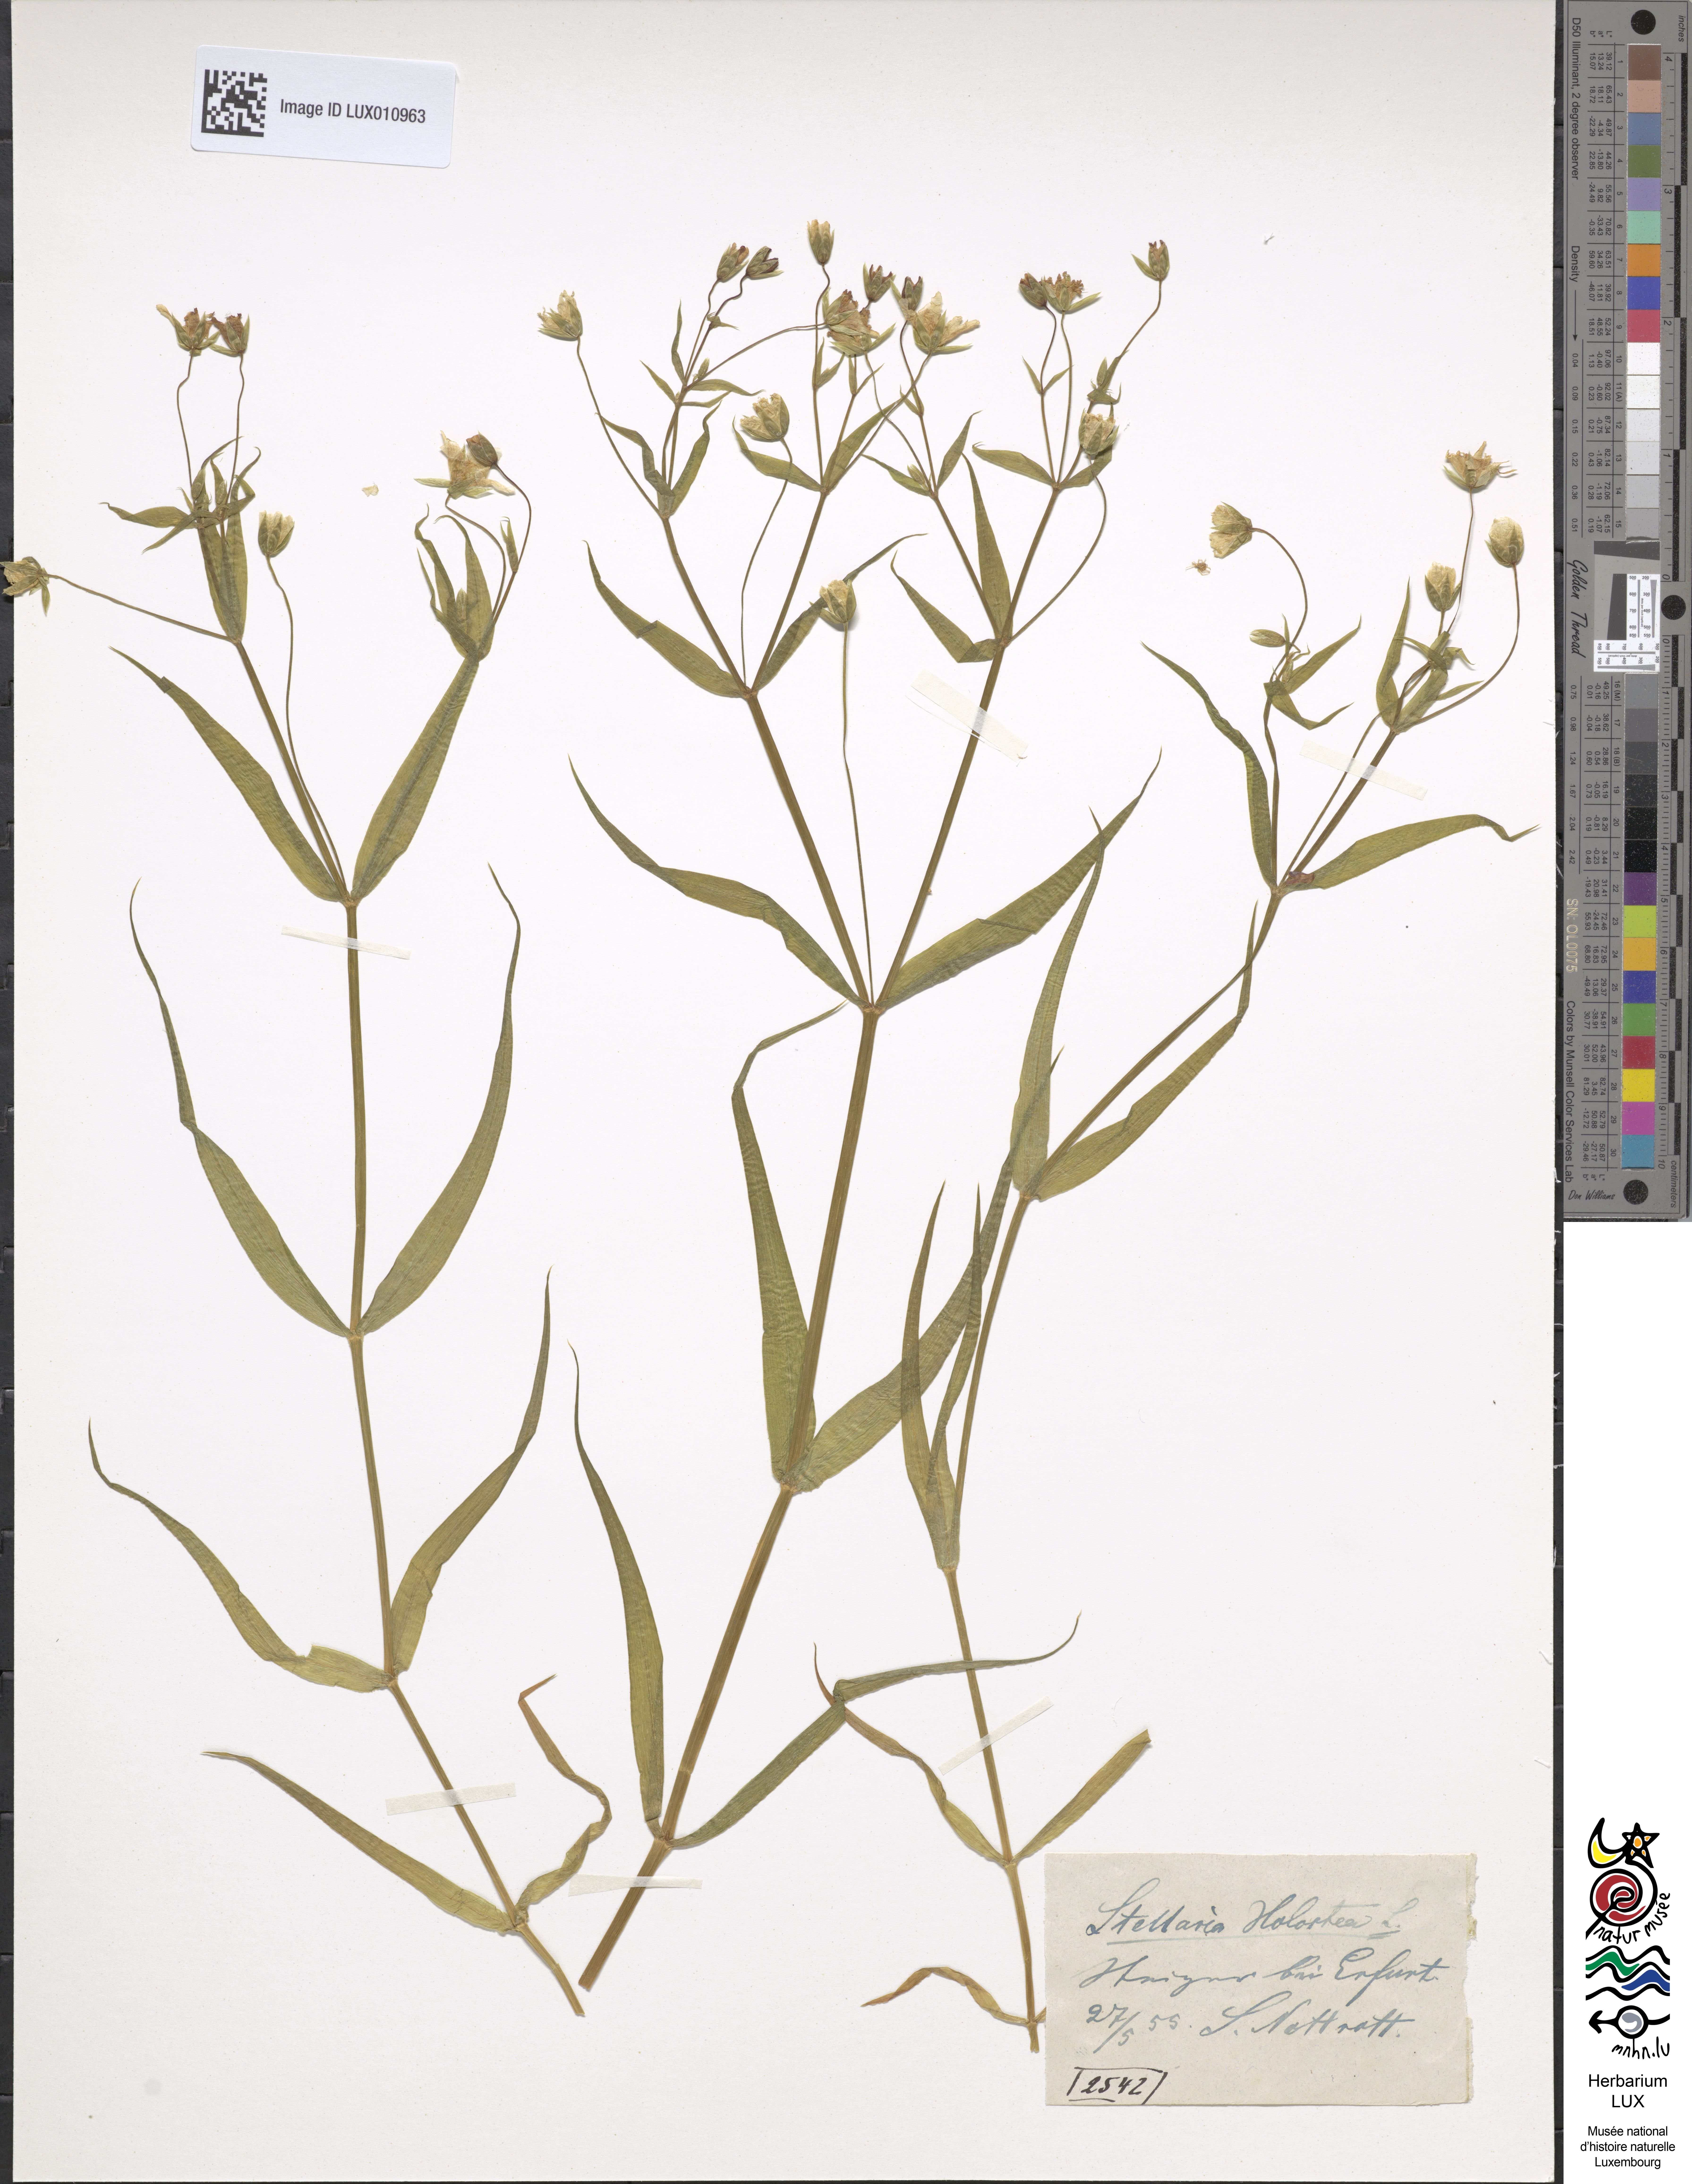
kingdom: Plantae
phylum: Tracheophyta
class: Magnoliopsida
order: Caryophyllales
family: Caryophyllaceae
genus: Rabelera
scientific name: Rabelera holostea
